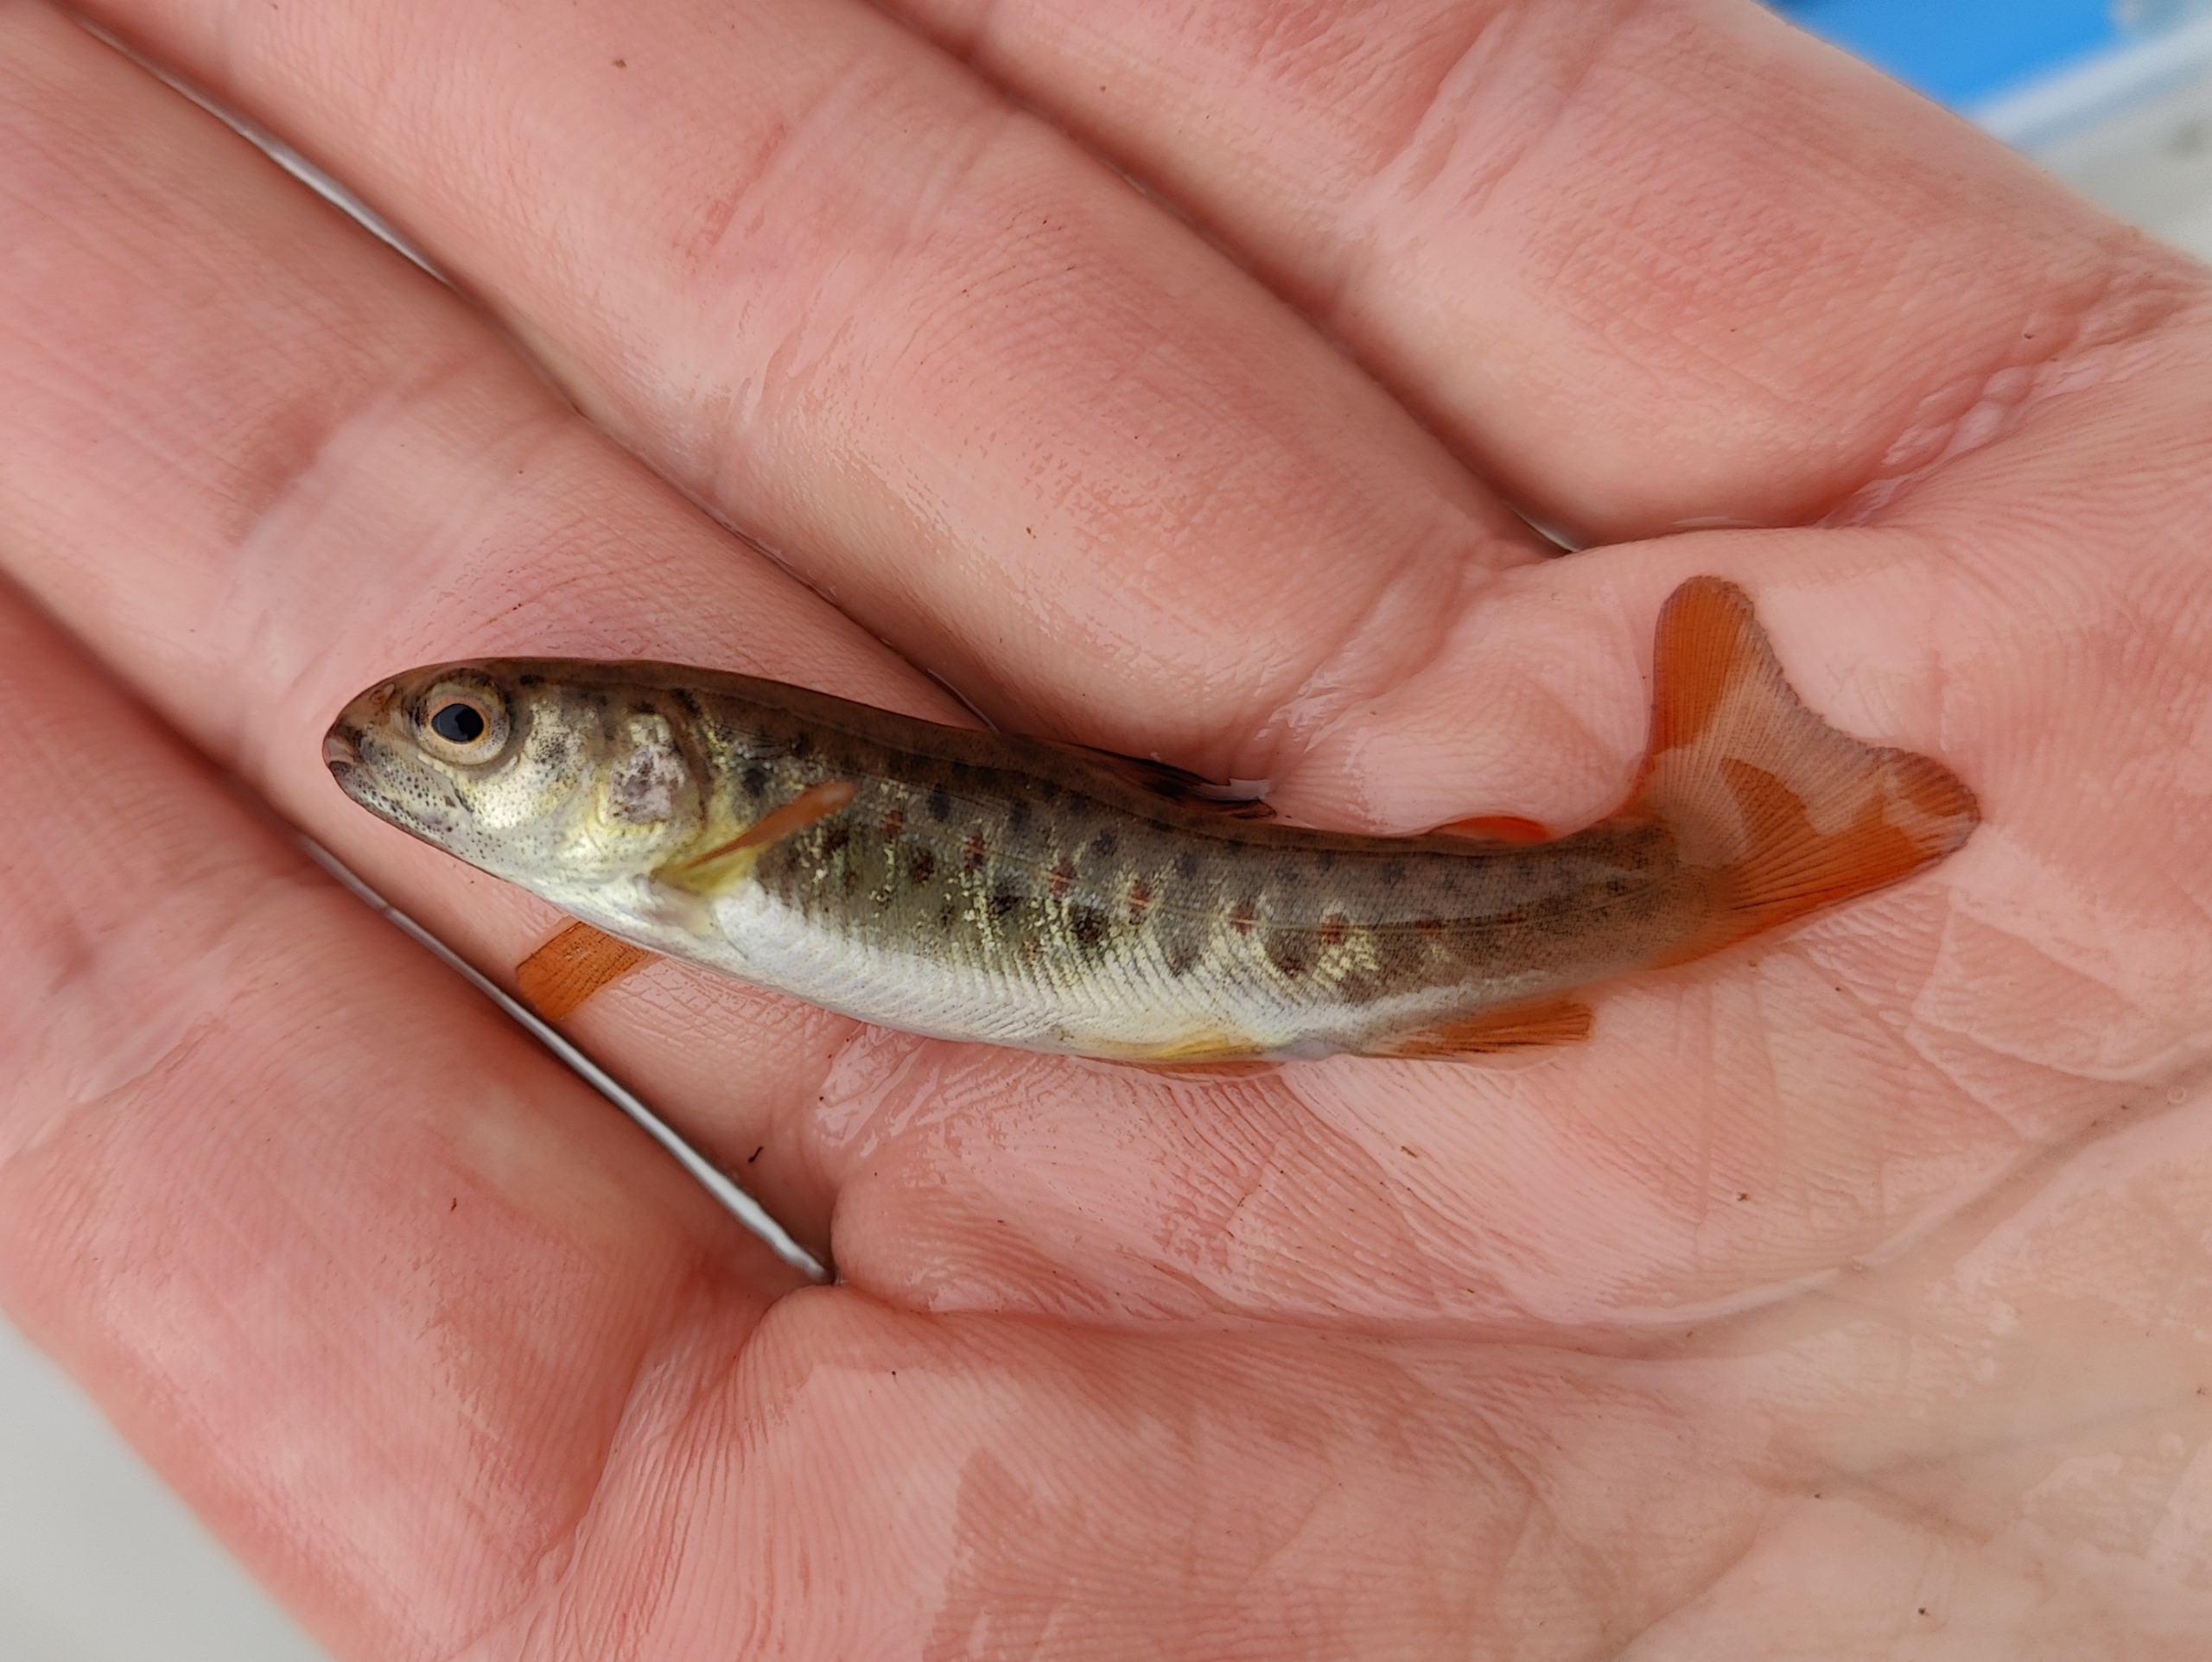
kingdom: Animalia
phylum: Chordata
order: Salmoniformes
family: Salmonidae
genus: Salmo
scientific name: Salmo trutta
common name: Ørred
